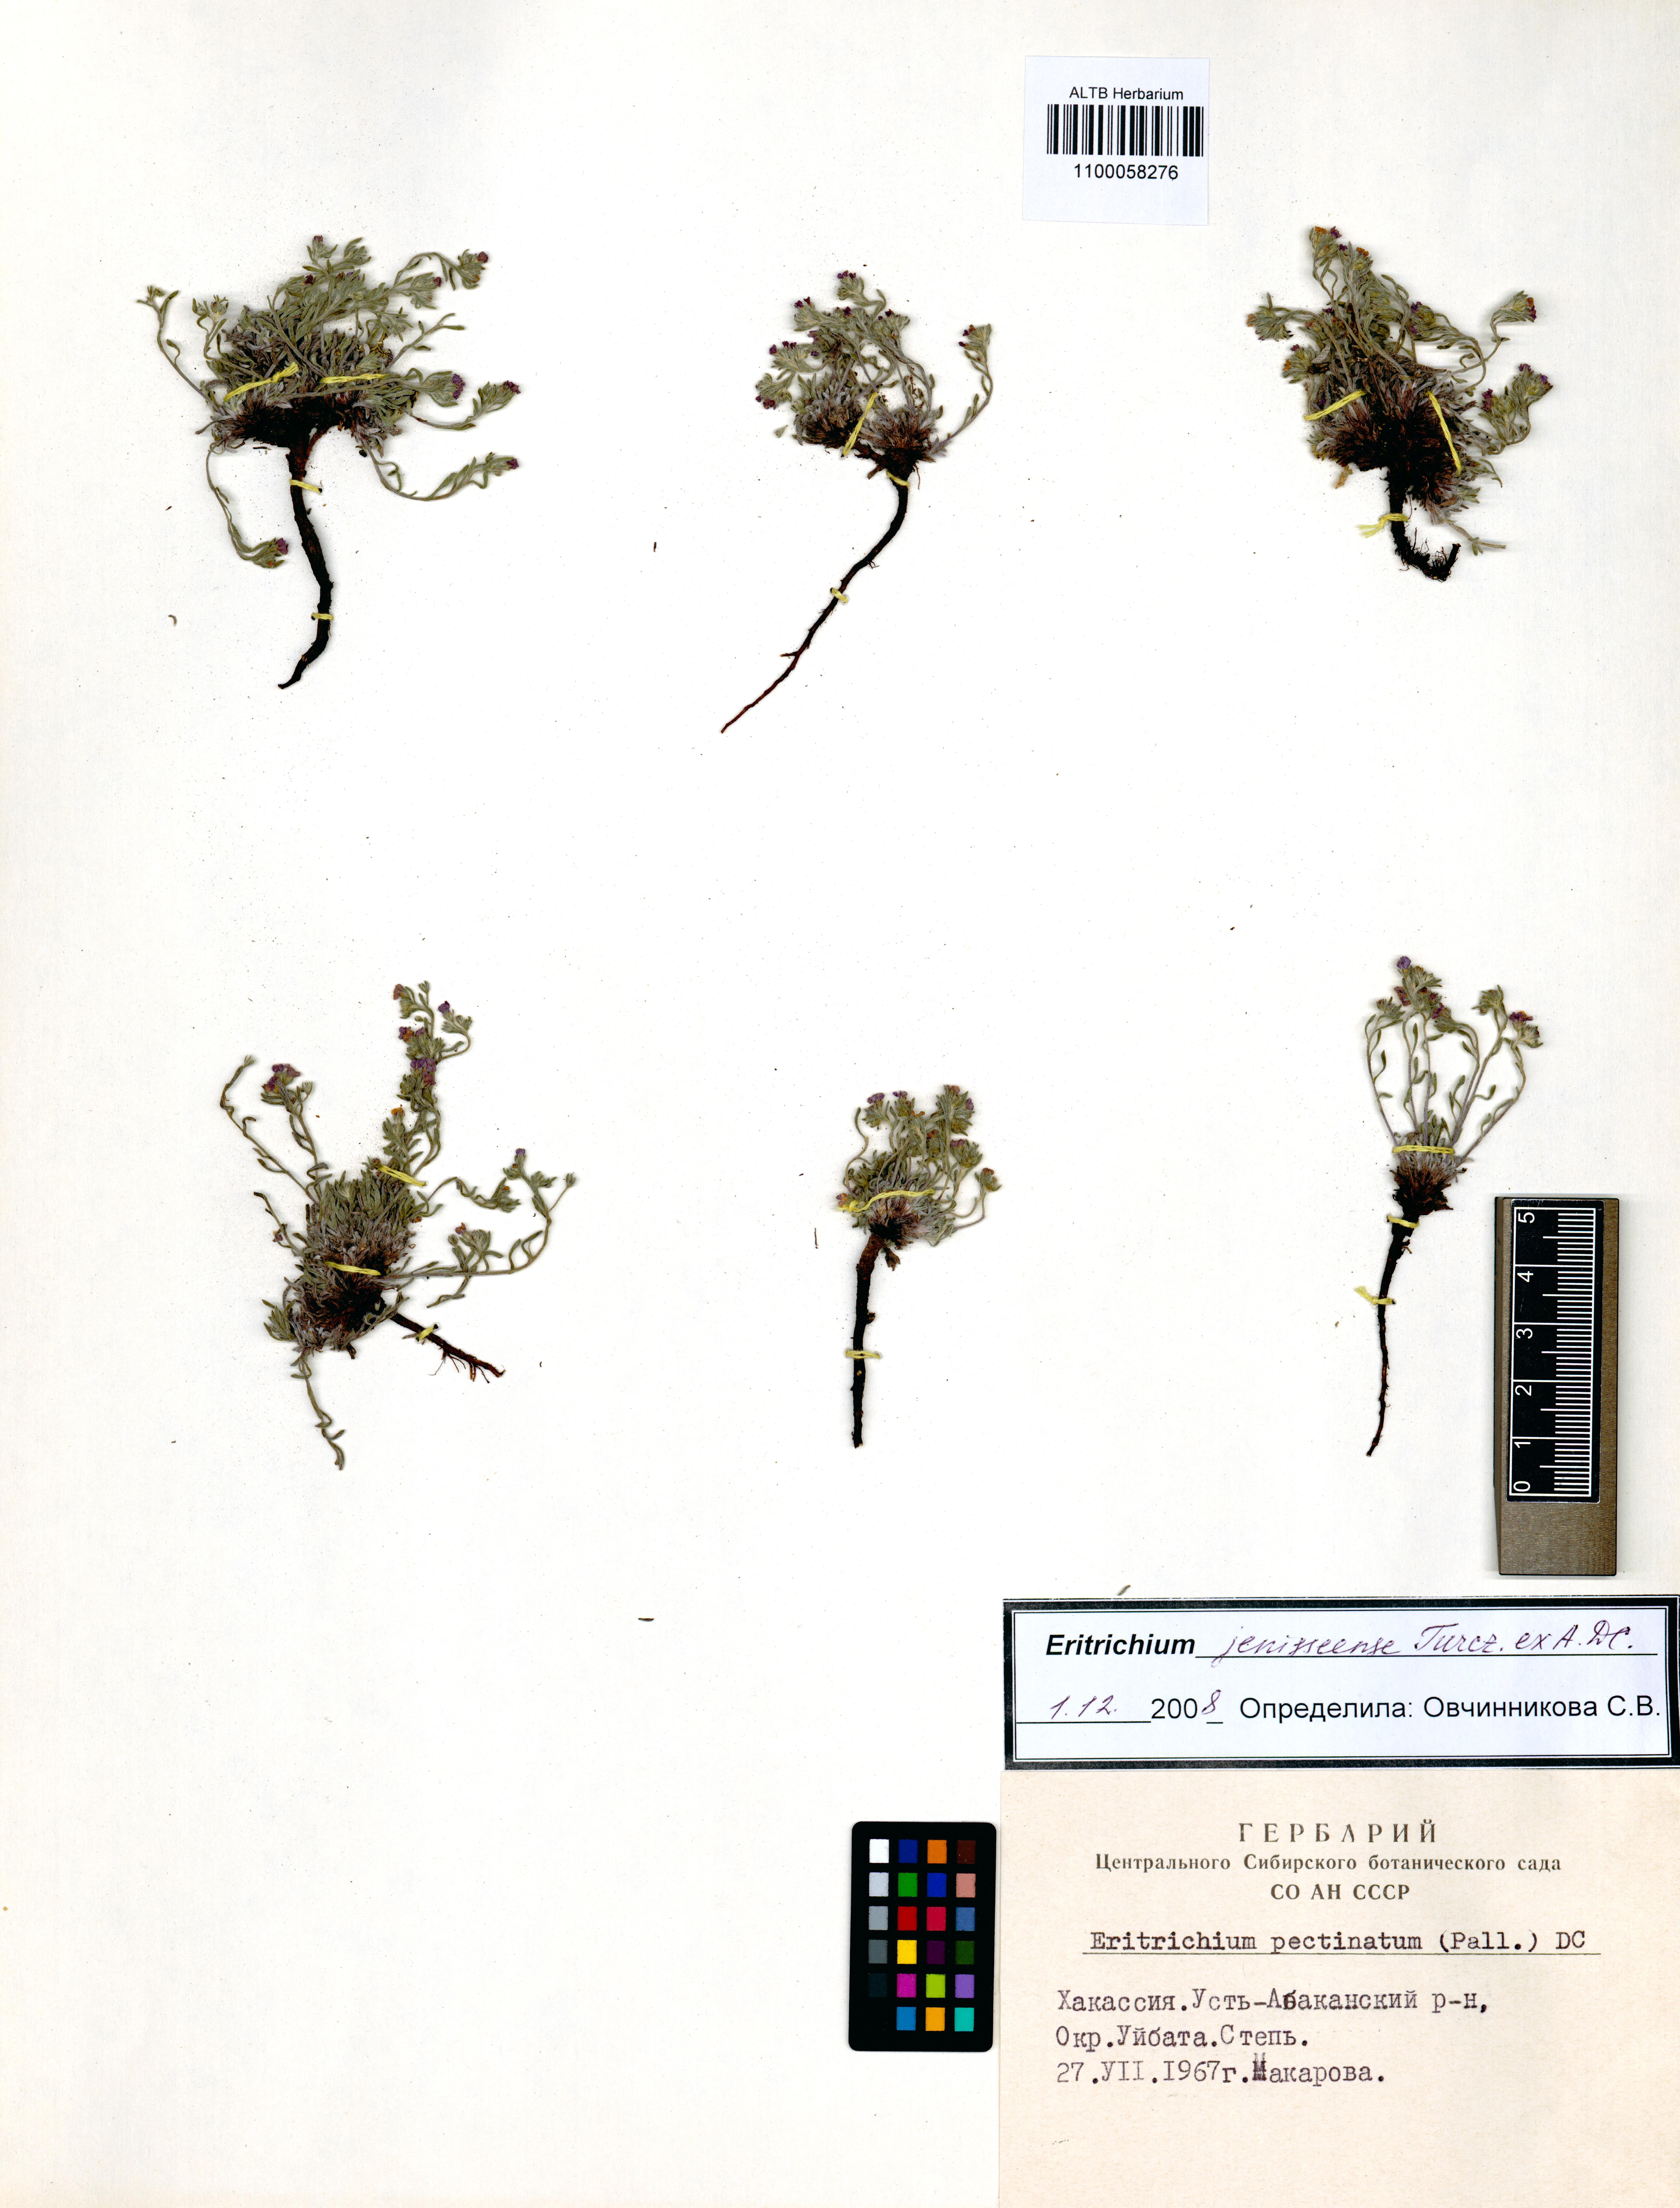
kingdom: Plantae
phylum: Tracheophyta
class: Magnoliopsida
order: Boraginales
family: Boraginaceae
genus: Eritrichium
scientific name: Eritrichium jenisseense
